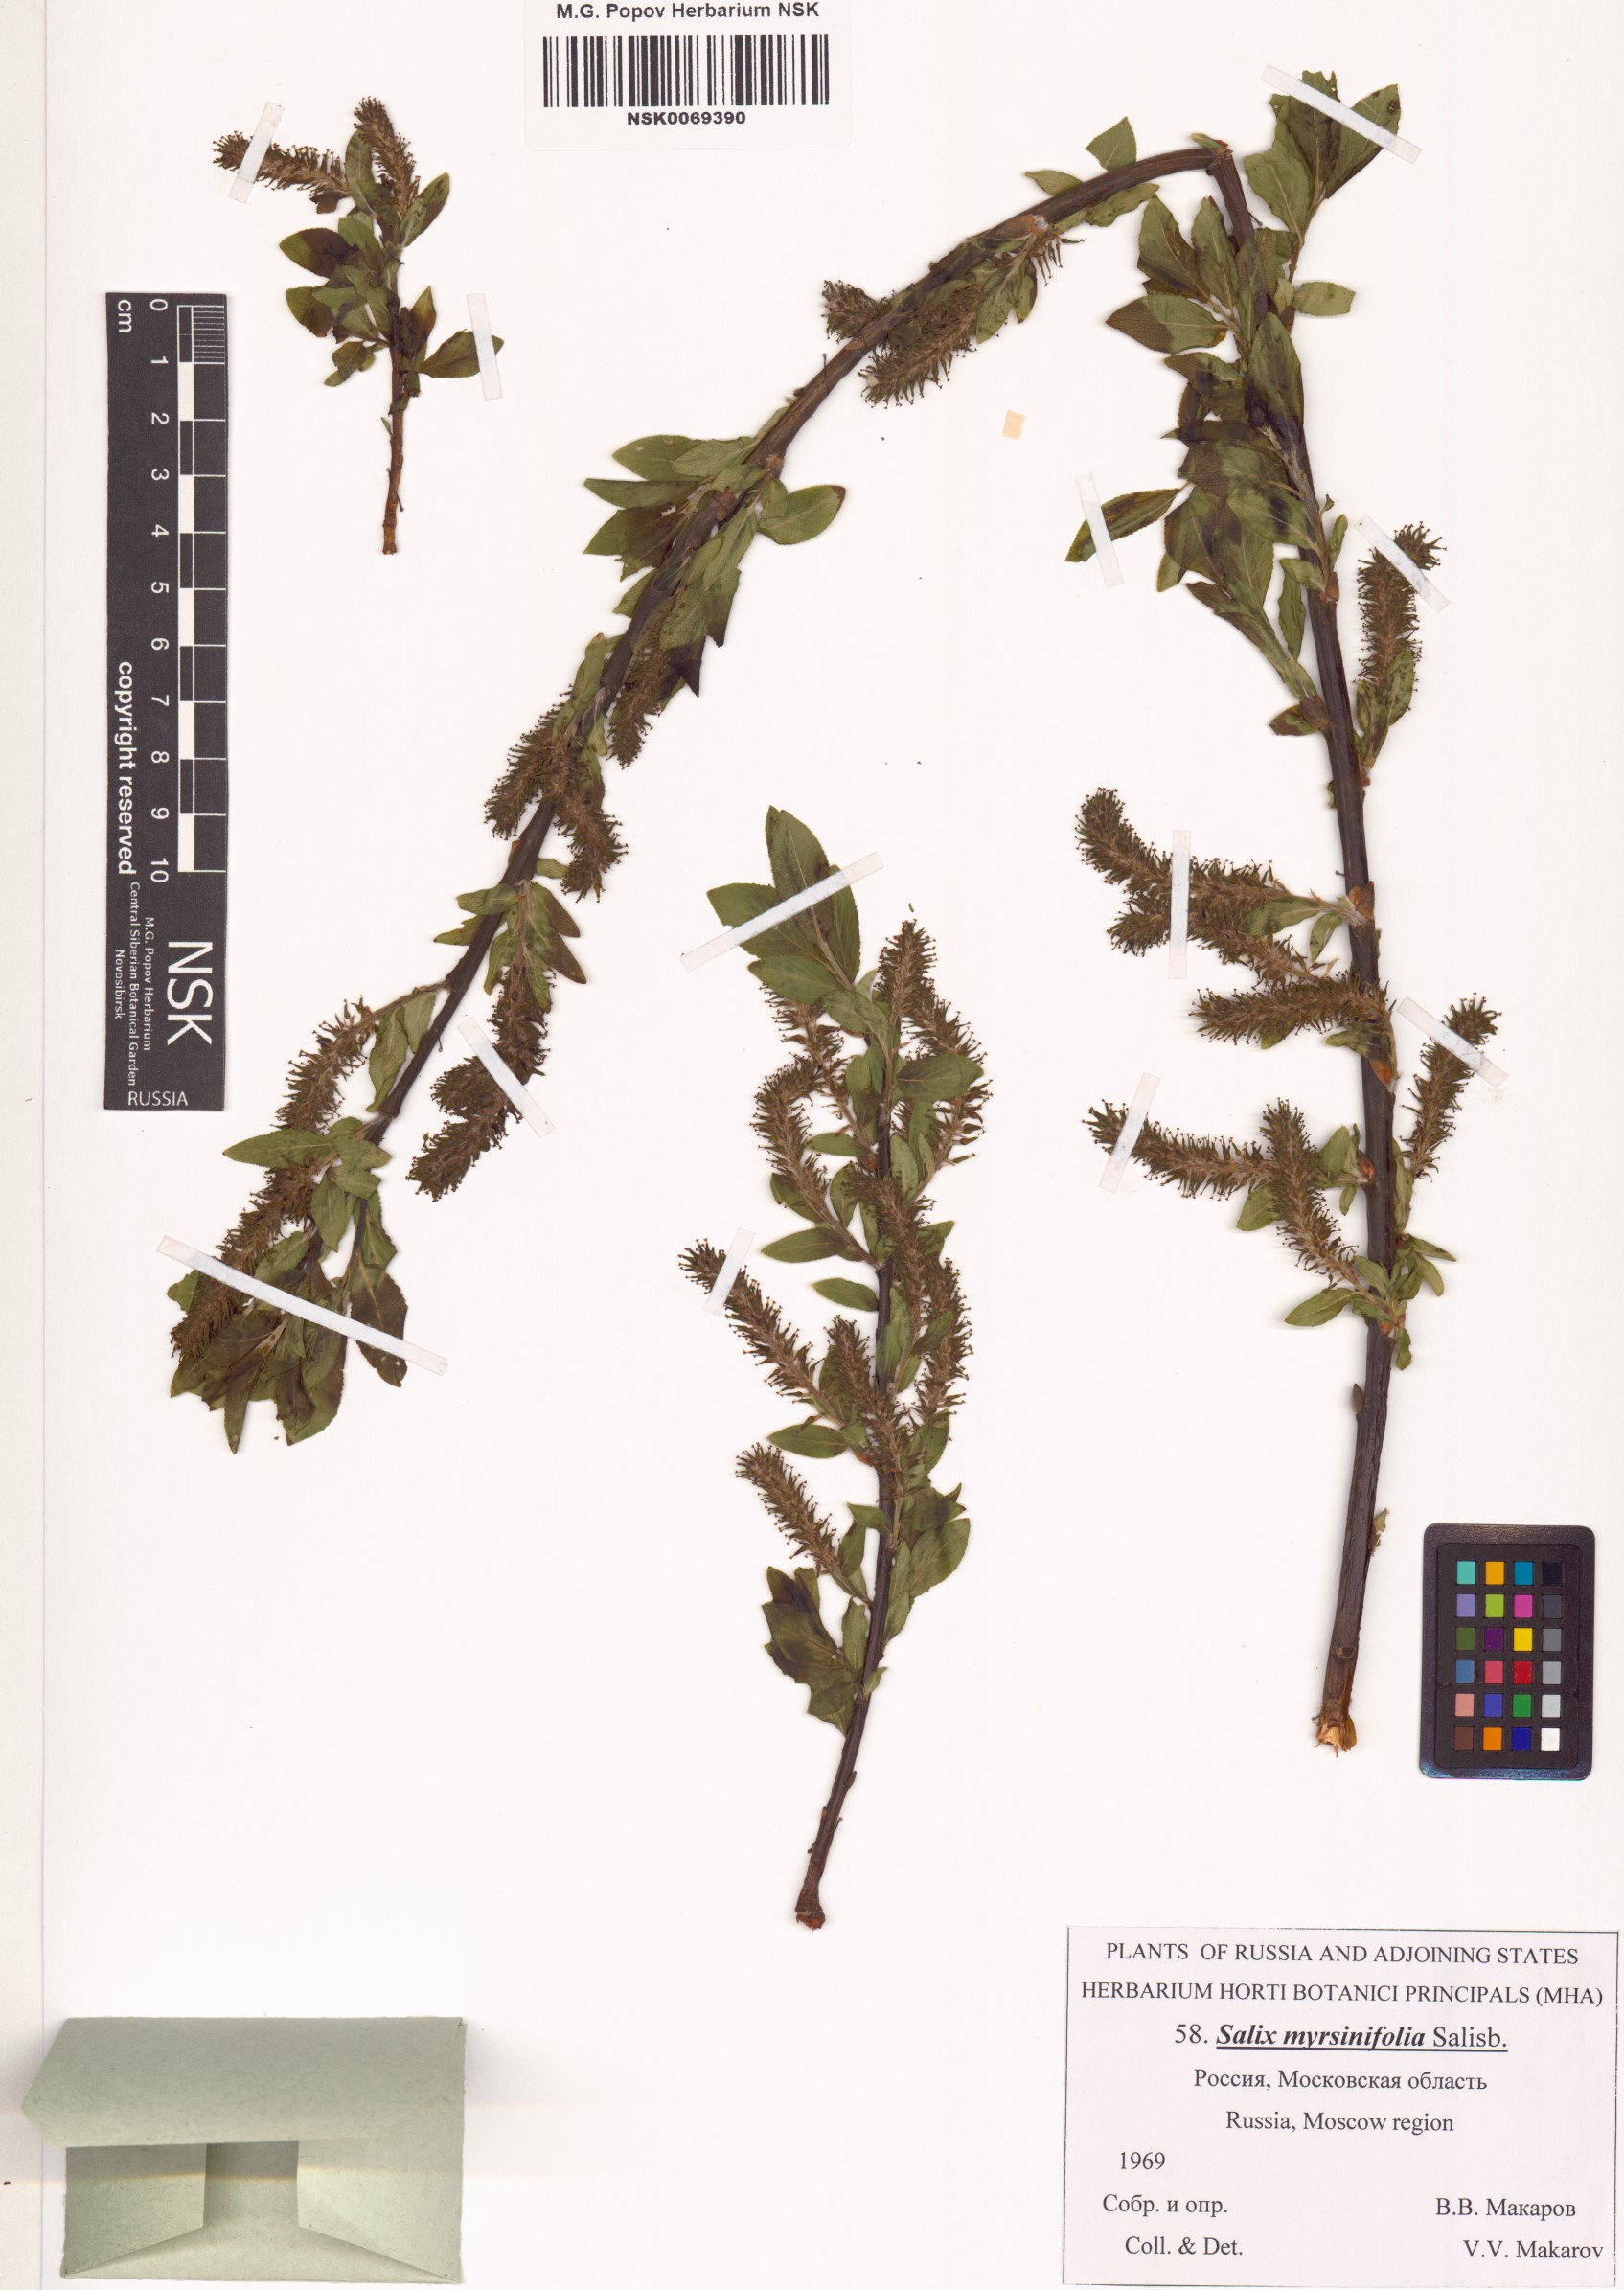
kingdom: Plantae
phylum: Tracheophyta
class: Magnoliopsida
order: Malpighiales
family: Salicaceae
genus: Salix
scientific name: Salix myrsinifolia
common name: Dark-leaved willow
